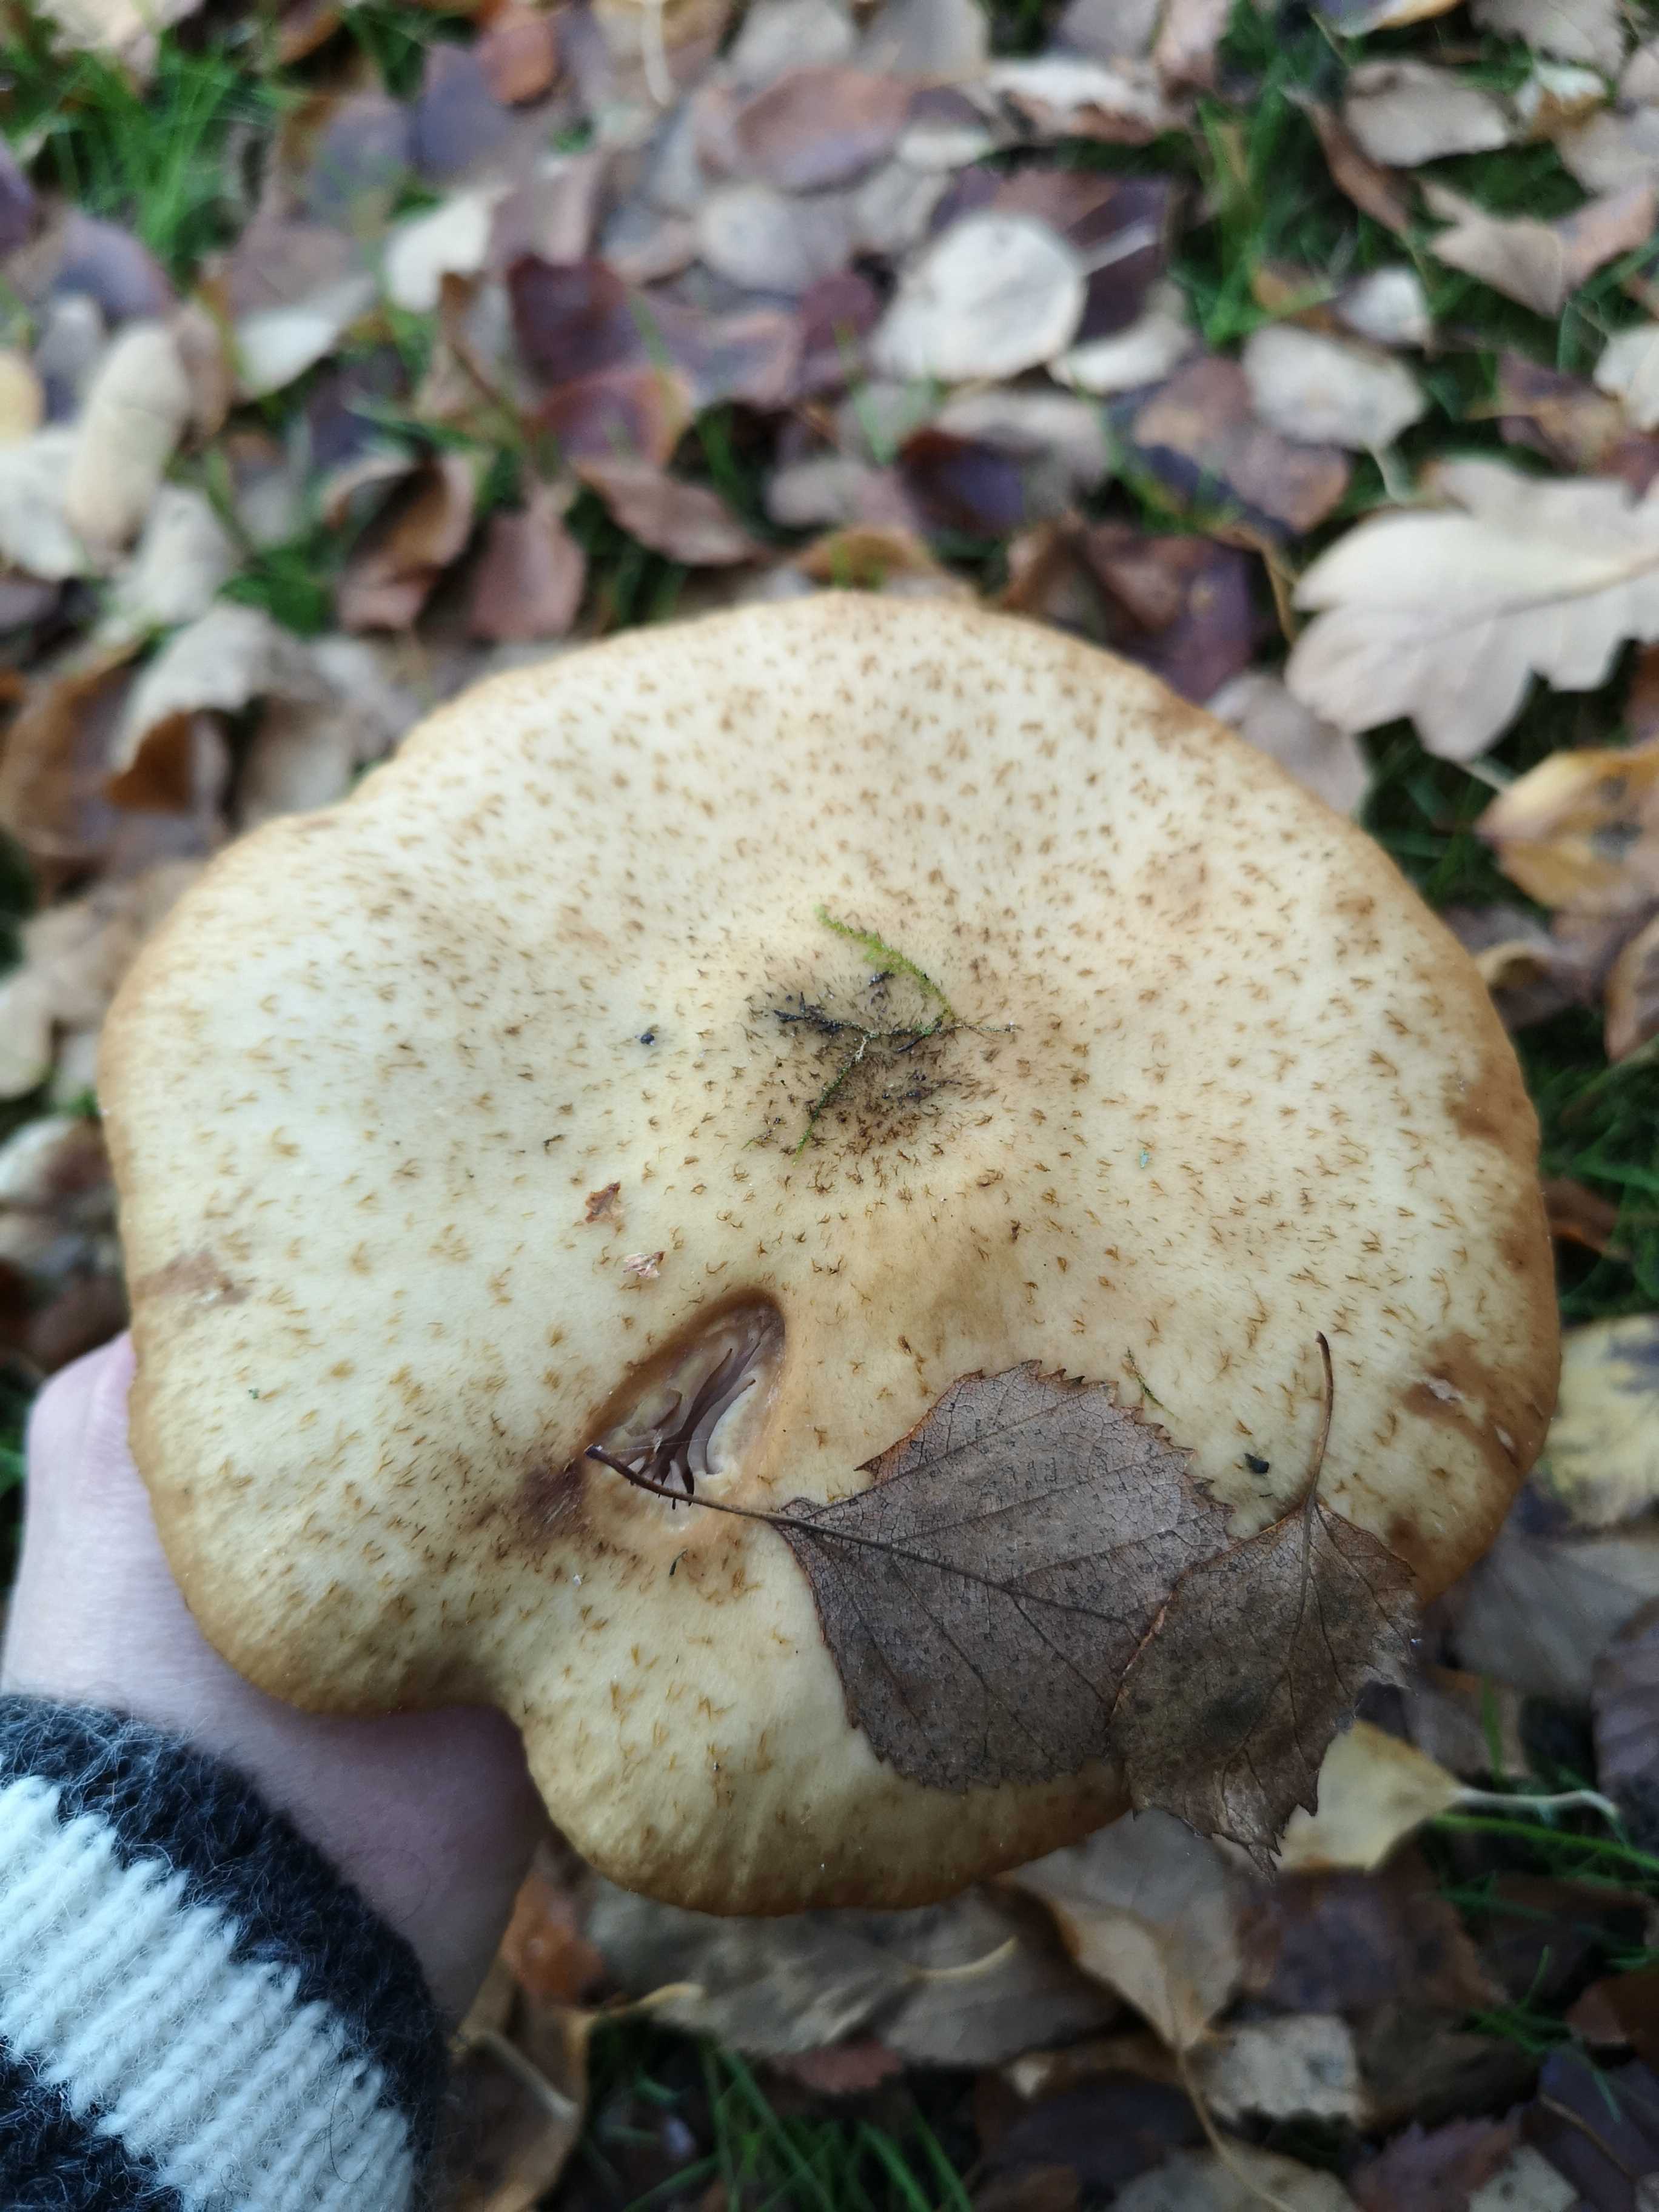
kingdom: Fungi
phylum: Basidiomycota
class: Agaricomycetes
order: Agaricales
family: Physalacriaceae
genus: Armillaria
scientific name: Armillaria lutea
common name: køllestokket honningsvamp
